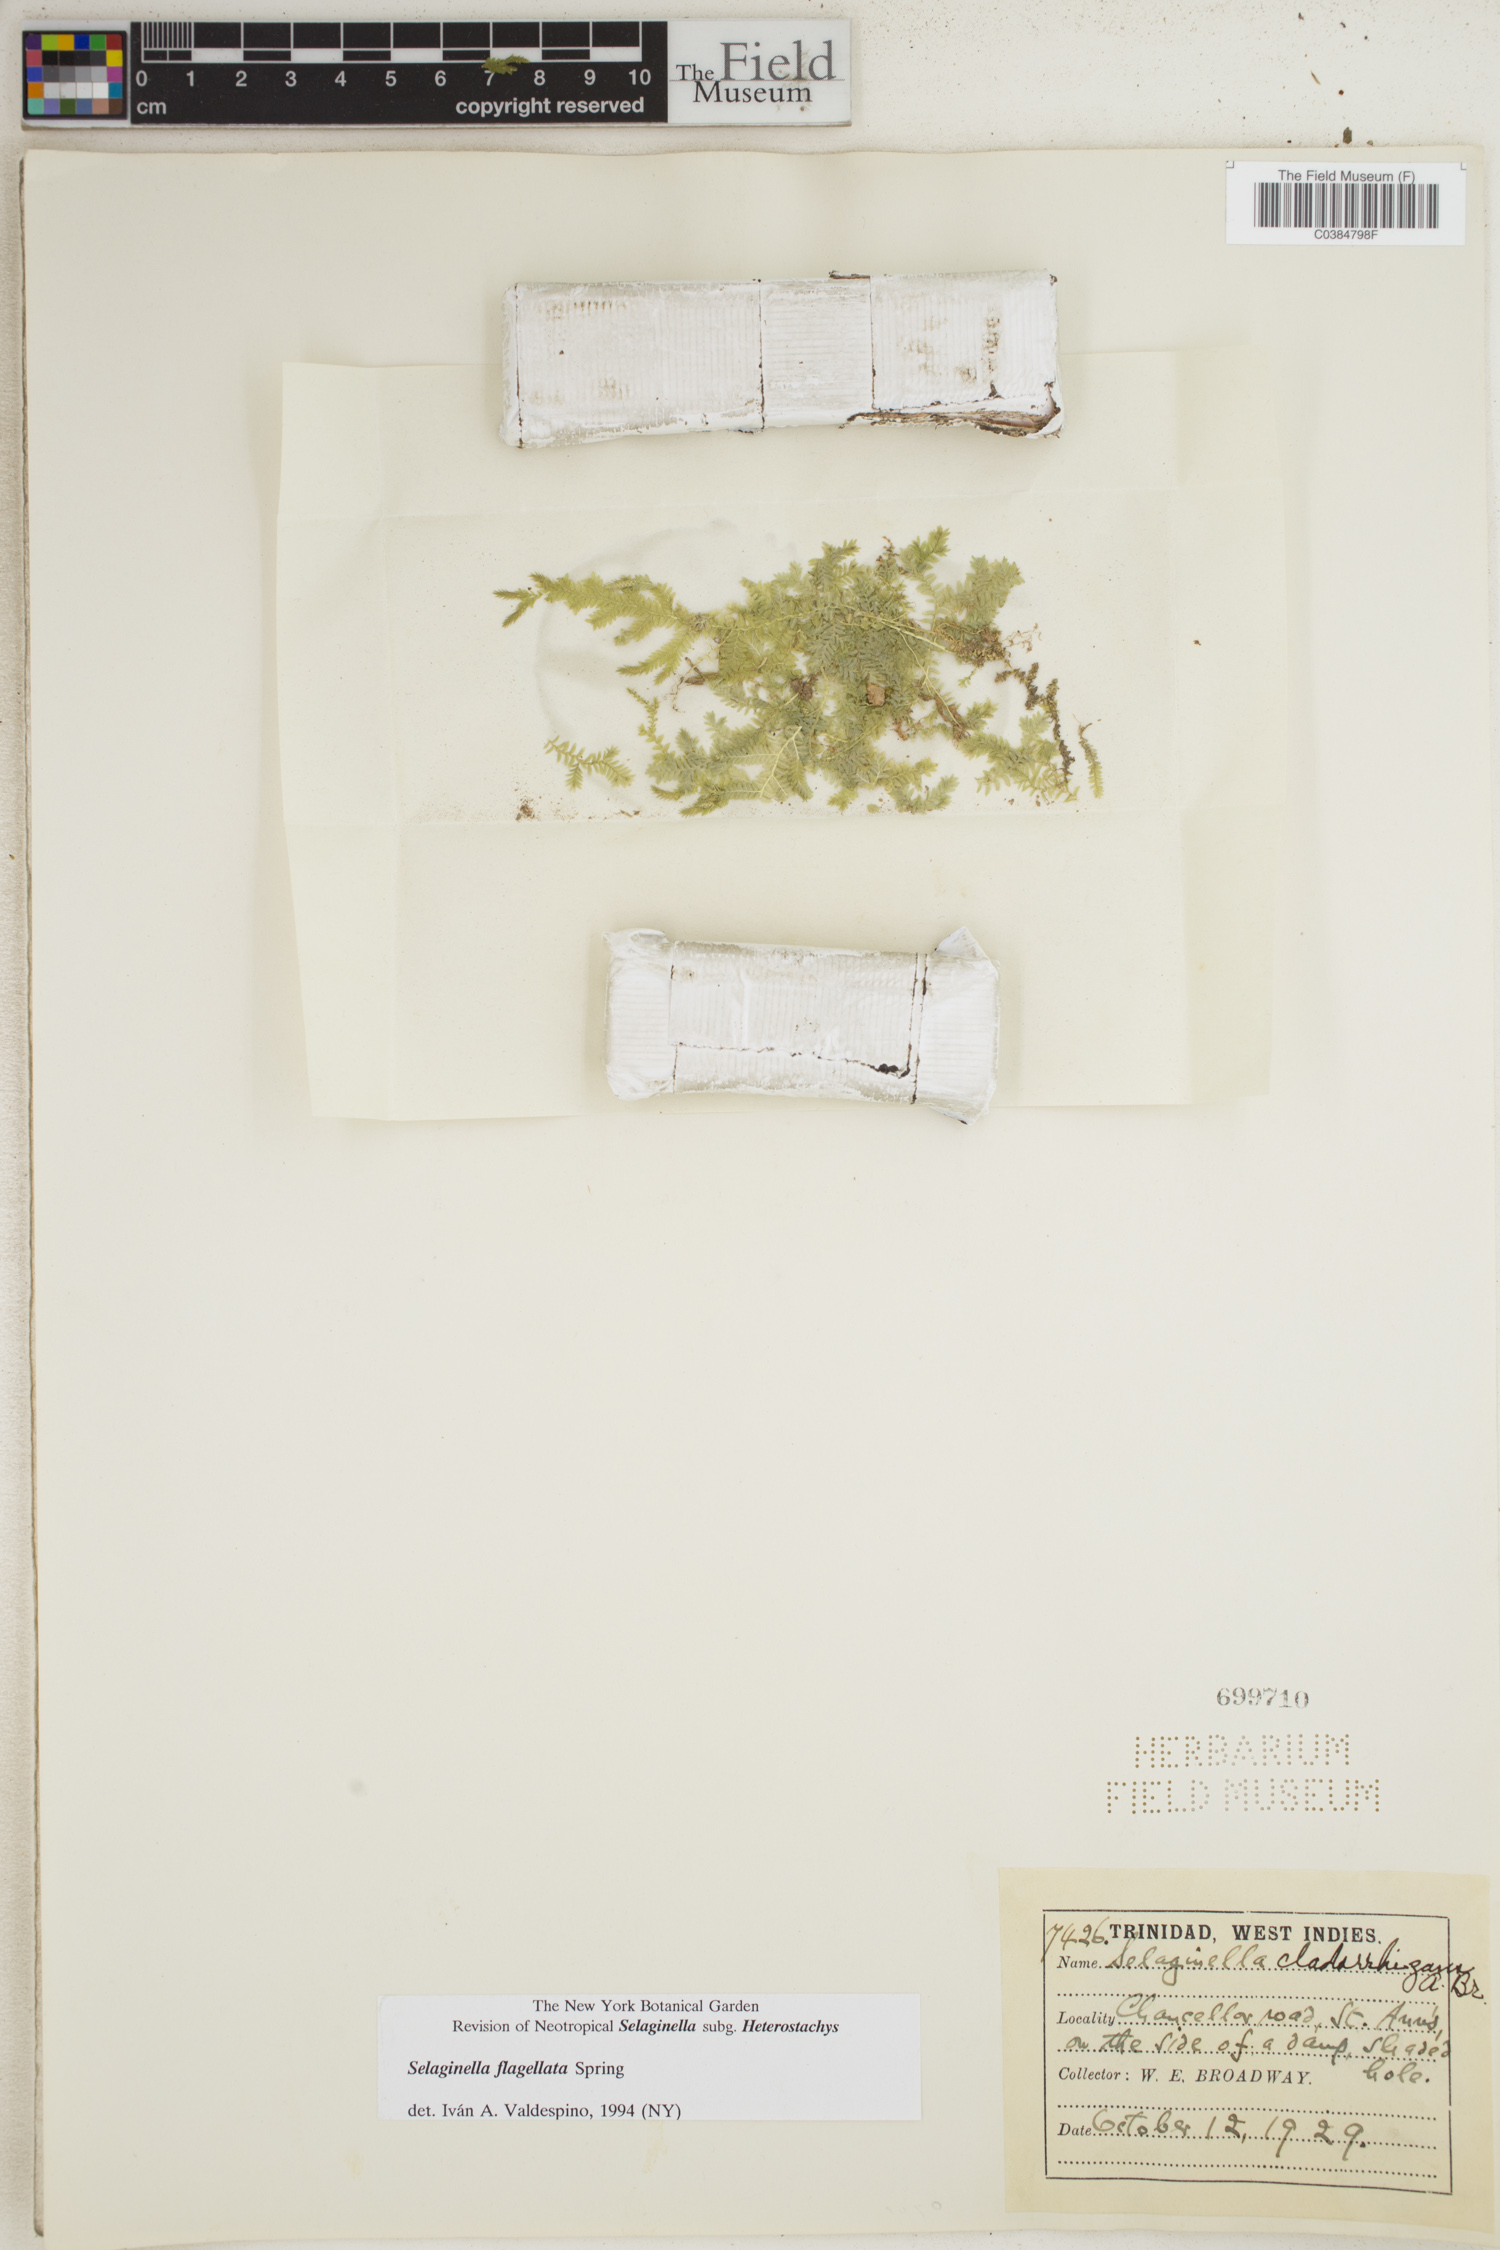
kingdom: Plantae
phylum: Tracheophyta
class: Lycopodiopsida
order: Selaginellales
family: Selaginellaceae
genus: Selaginella
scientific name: Selaginella flagellata
